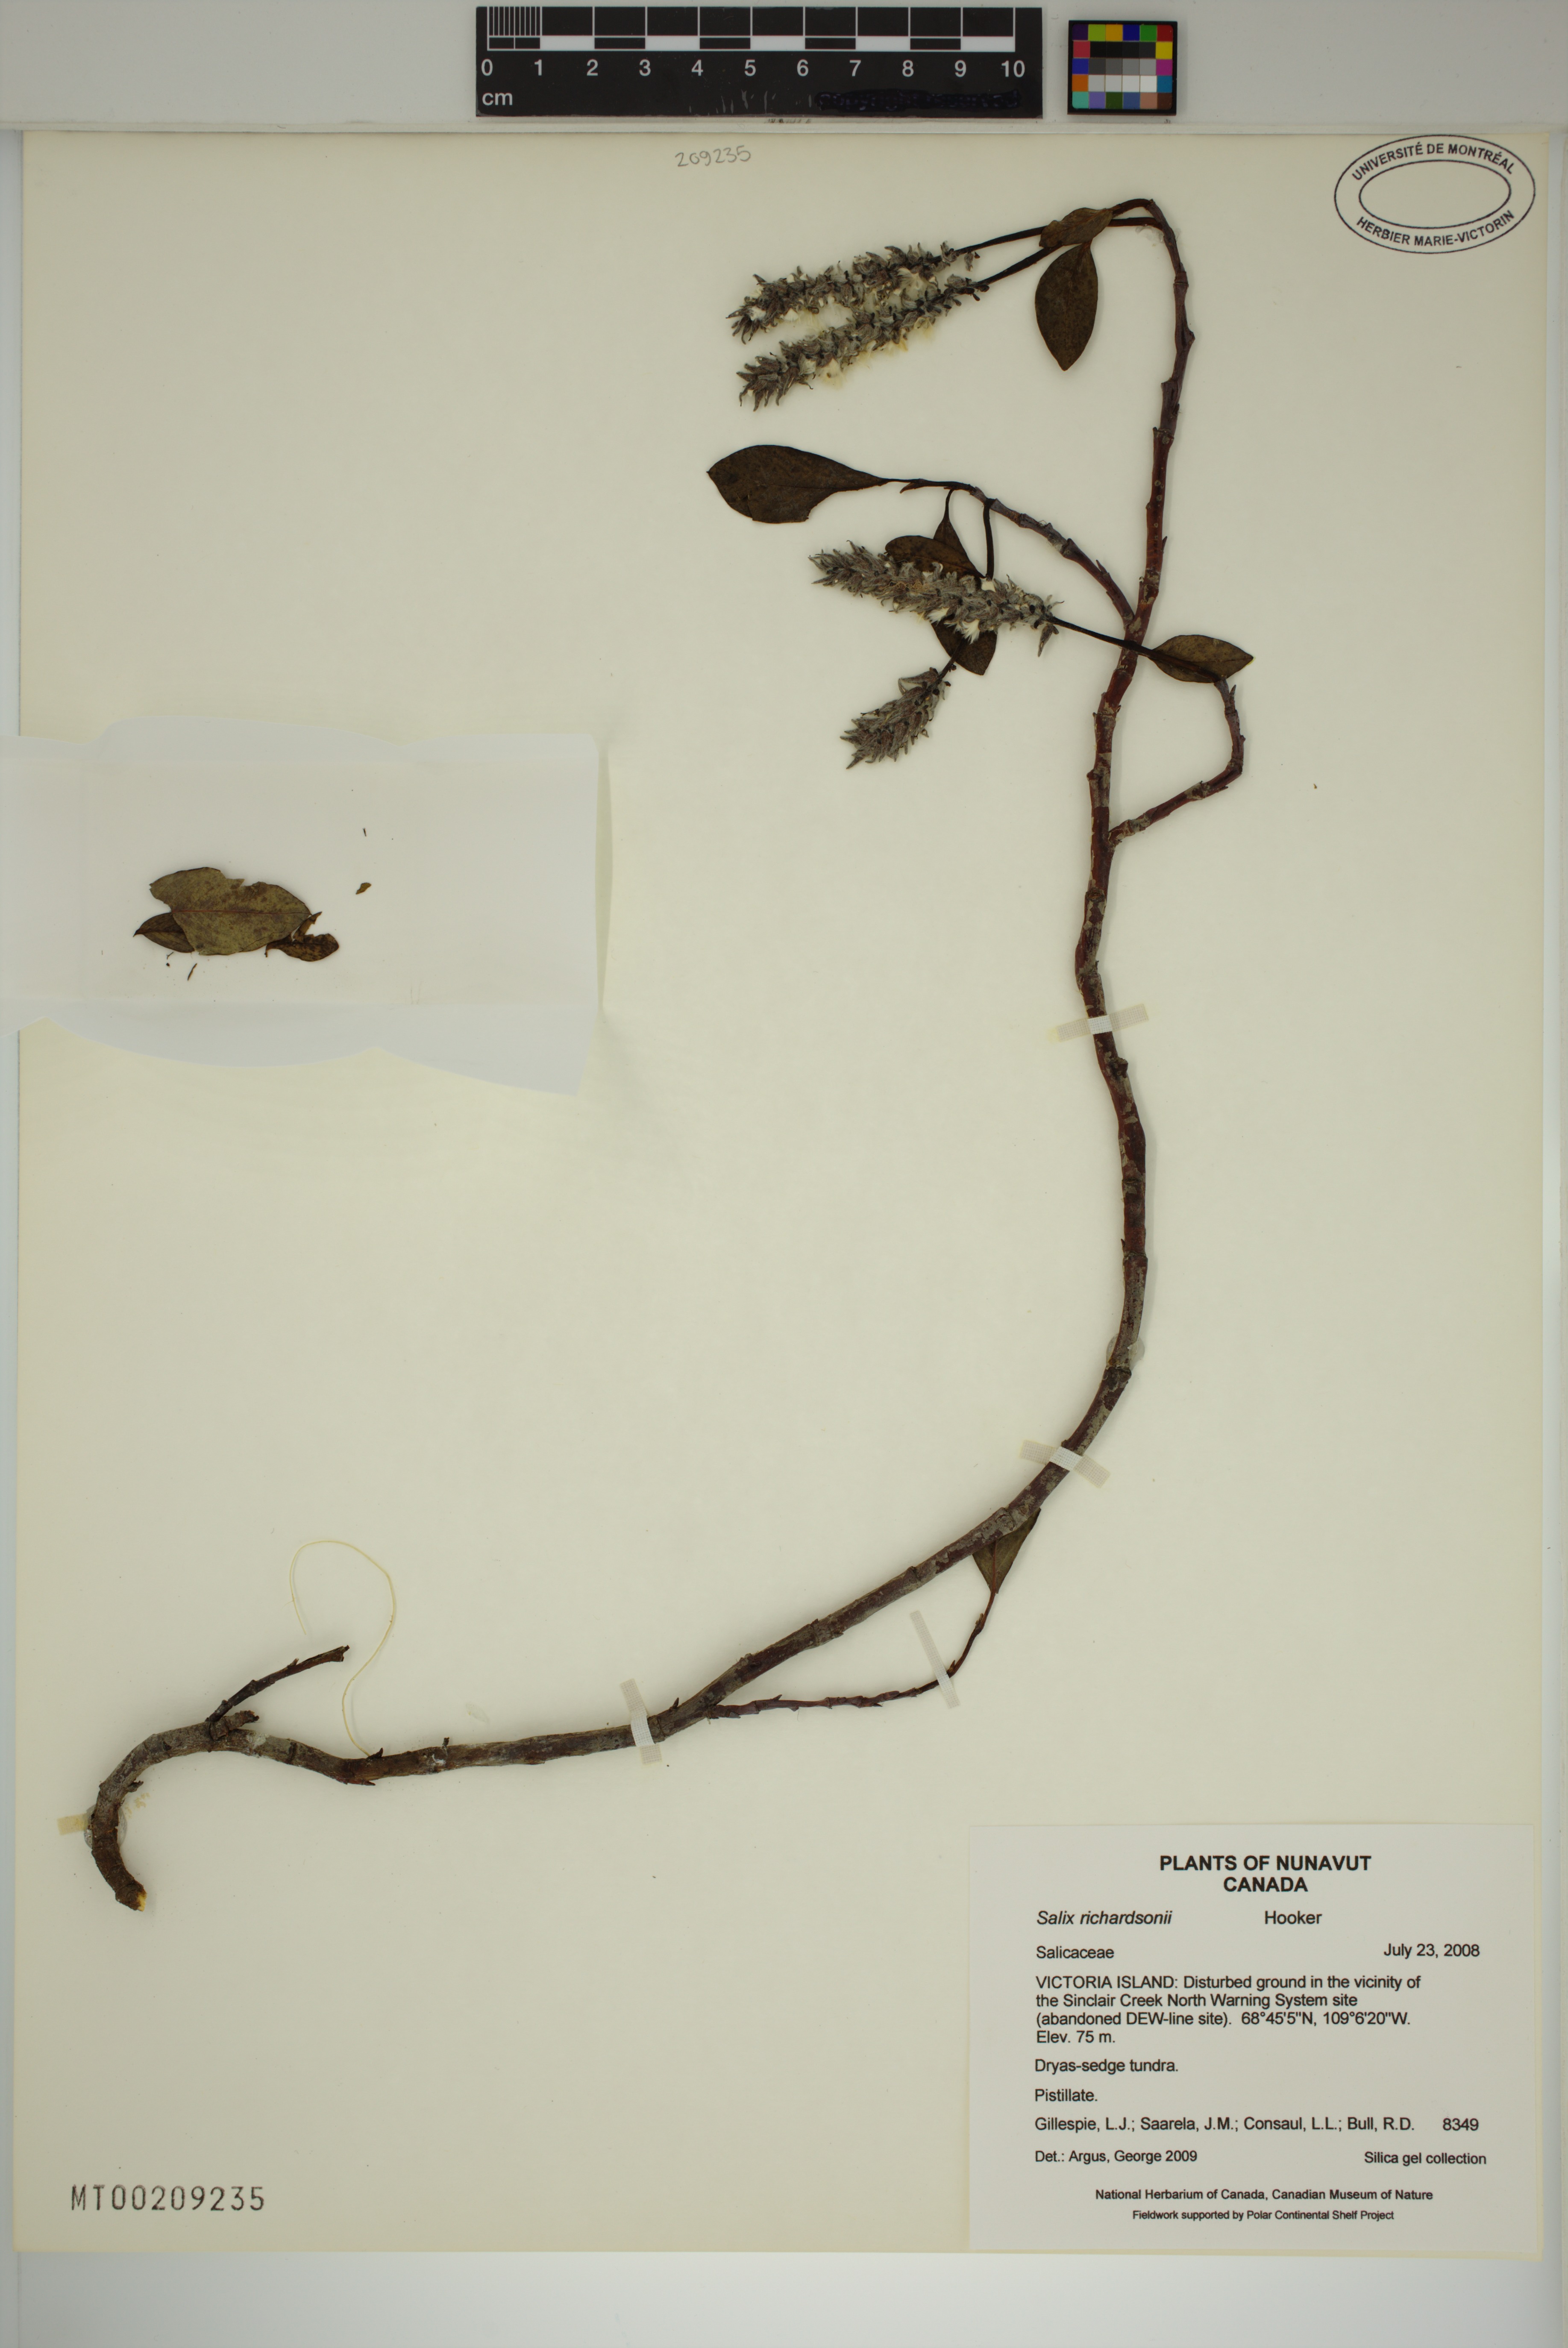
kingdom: Plantae
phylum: Tracheophyta
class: Magnoliopsida
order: Malpighiales
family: Salicaceae
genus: Salix
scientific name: Salix richardsonii
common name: Richardson’s willow
